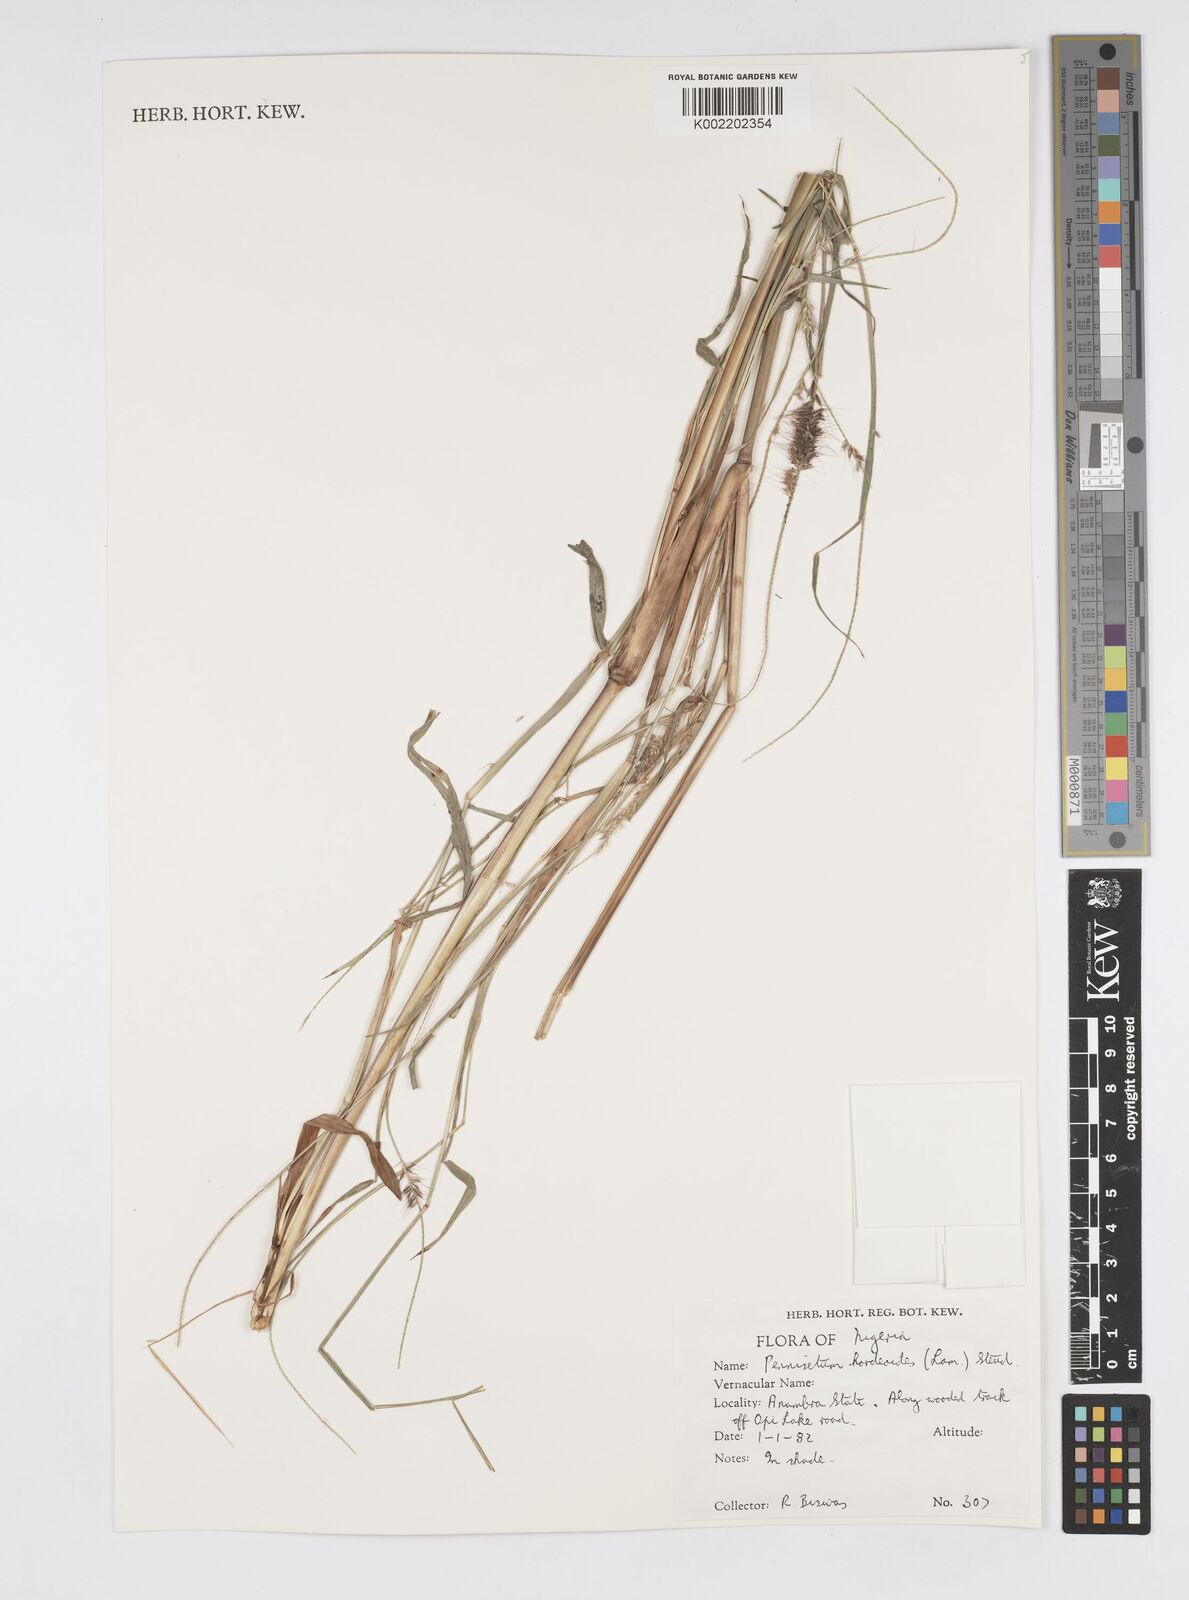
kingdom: Plantae
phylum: Tracheophyta
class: Liliopsida
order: Poales
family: Poaceae
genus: Cenchrus
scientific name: Cenchrus hordeoides
